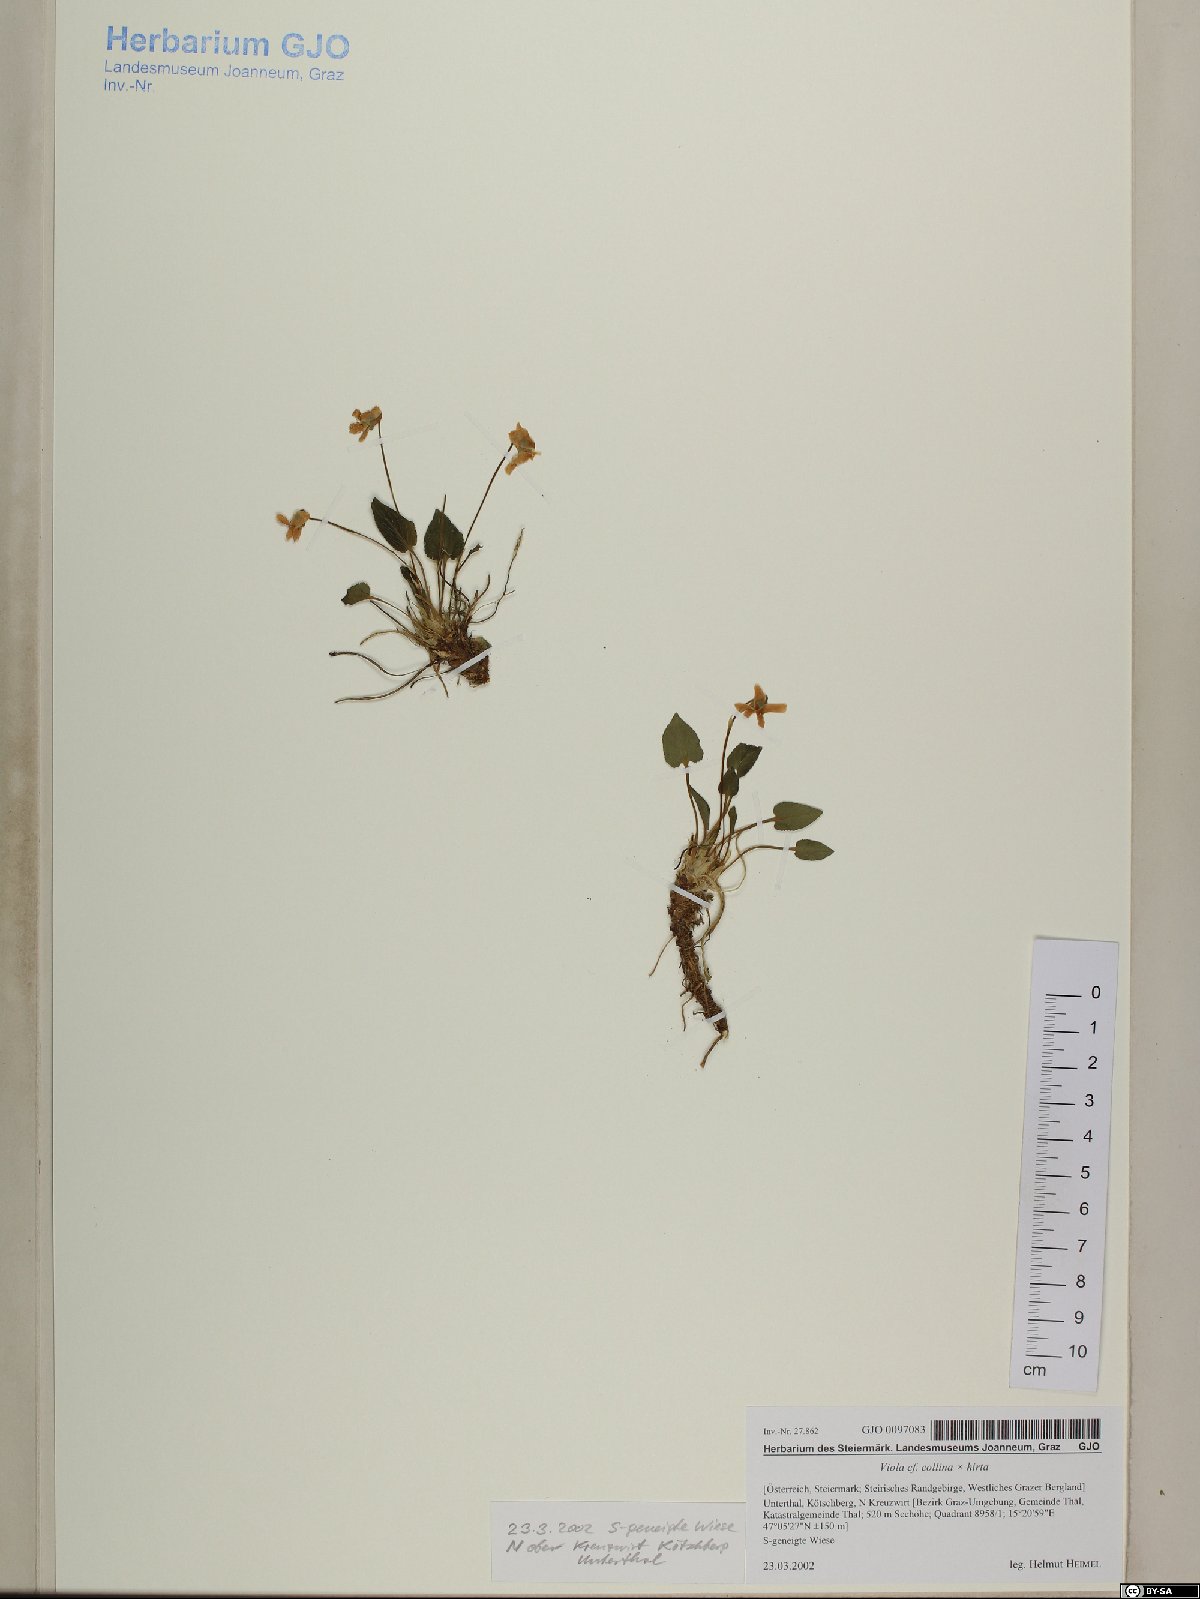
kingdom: Plantae
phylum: Tracheophyta
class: Magnoliopsida
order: Malpighiales
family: Violaceae
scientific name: Violaceae
